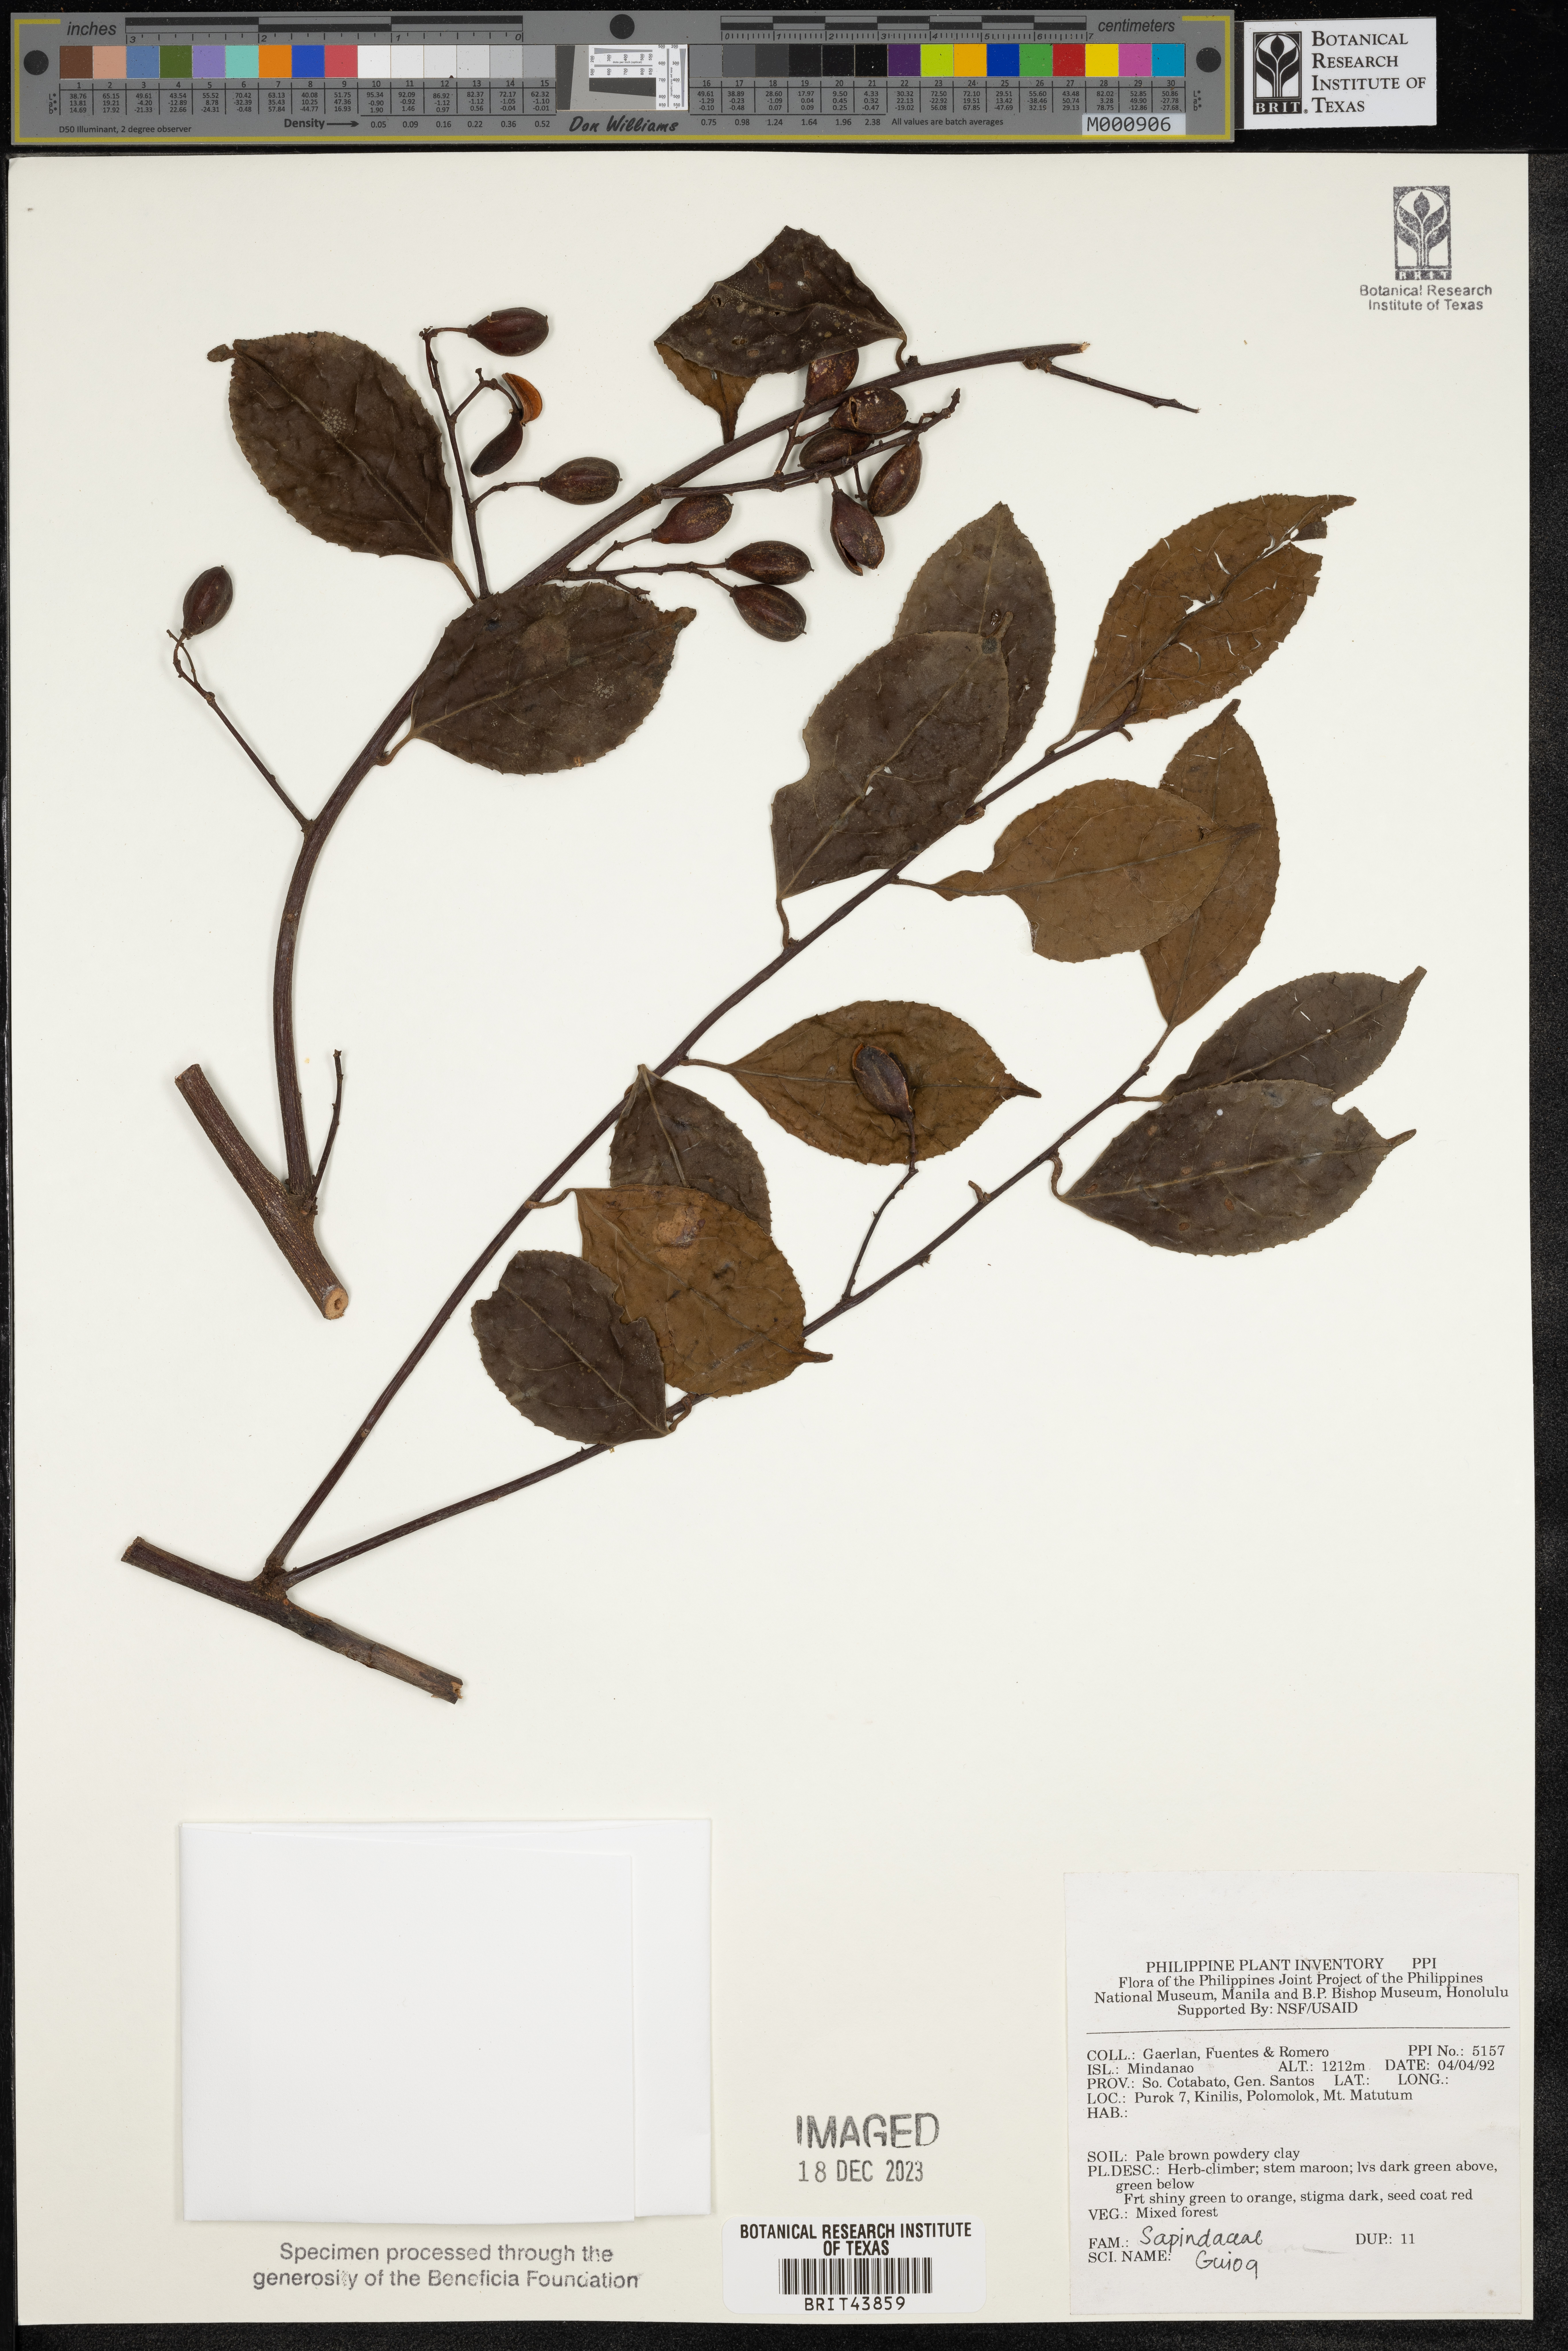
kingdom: Plantae
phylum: Tracheophyta
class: Magnoliopsida
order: Sapindales
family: Sapindaceae
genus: Guioa
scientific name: Guioa
